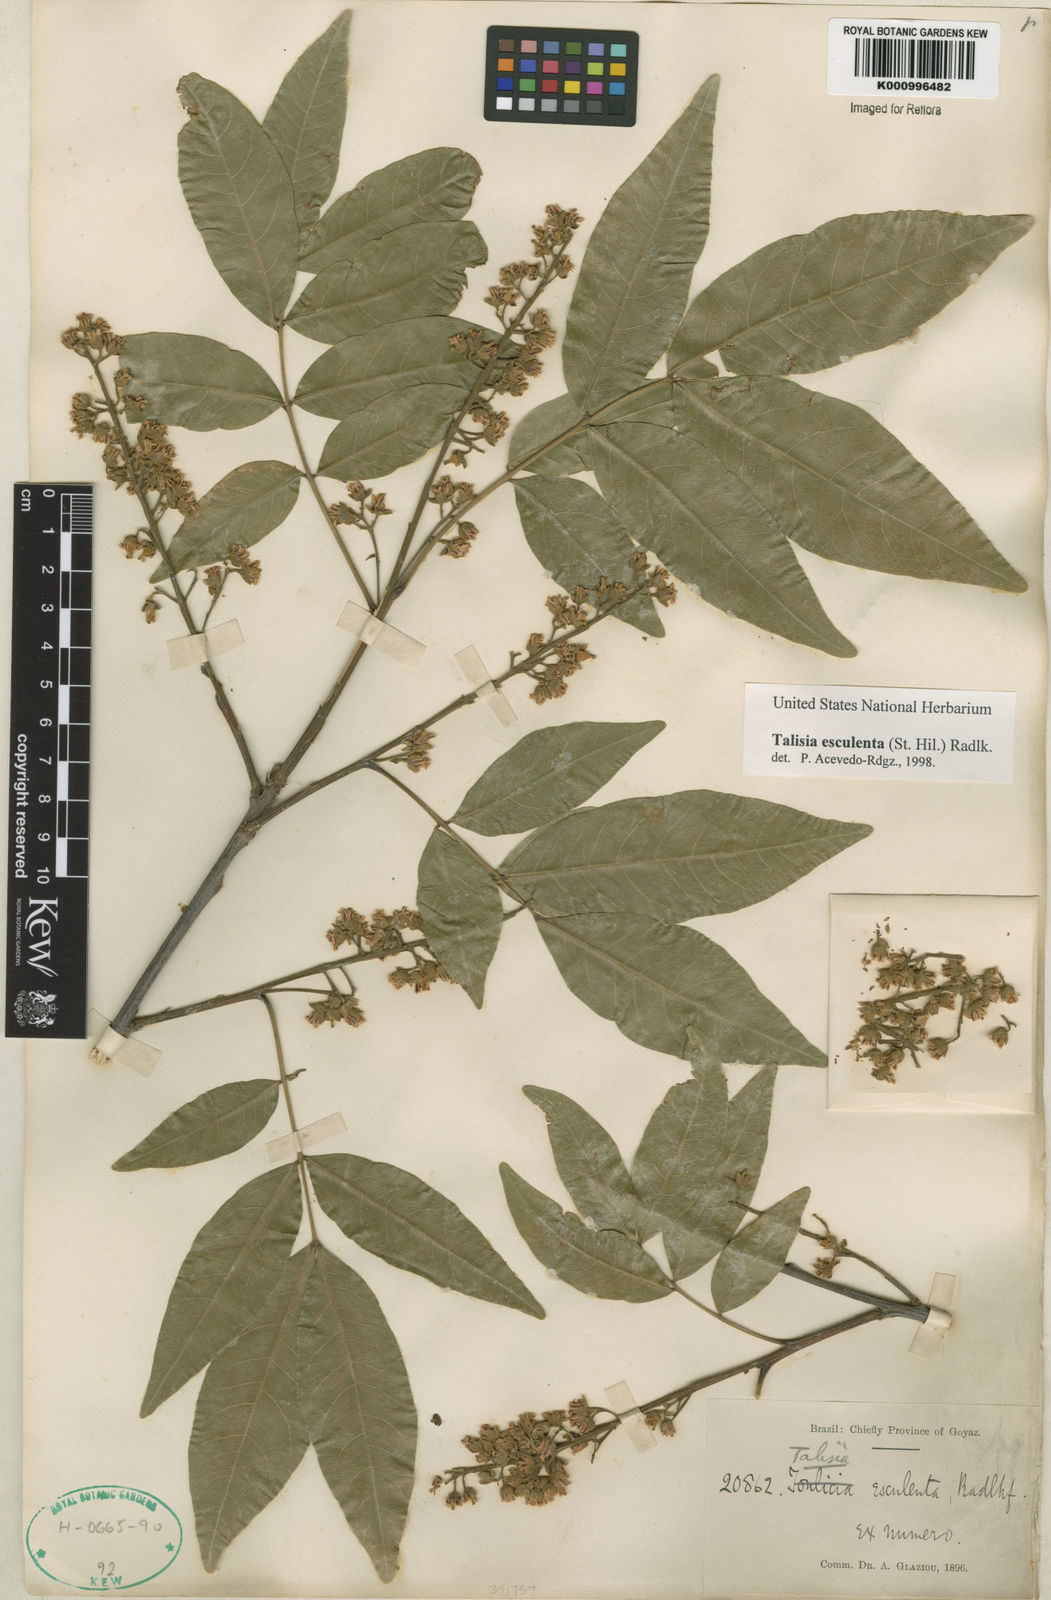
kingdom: Plantae
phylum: Tracheophyta
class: Magnoliopsida
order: Sapindales
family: Sapindaceae
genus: Talisia
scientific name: Talisia
